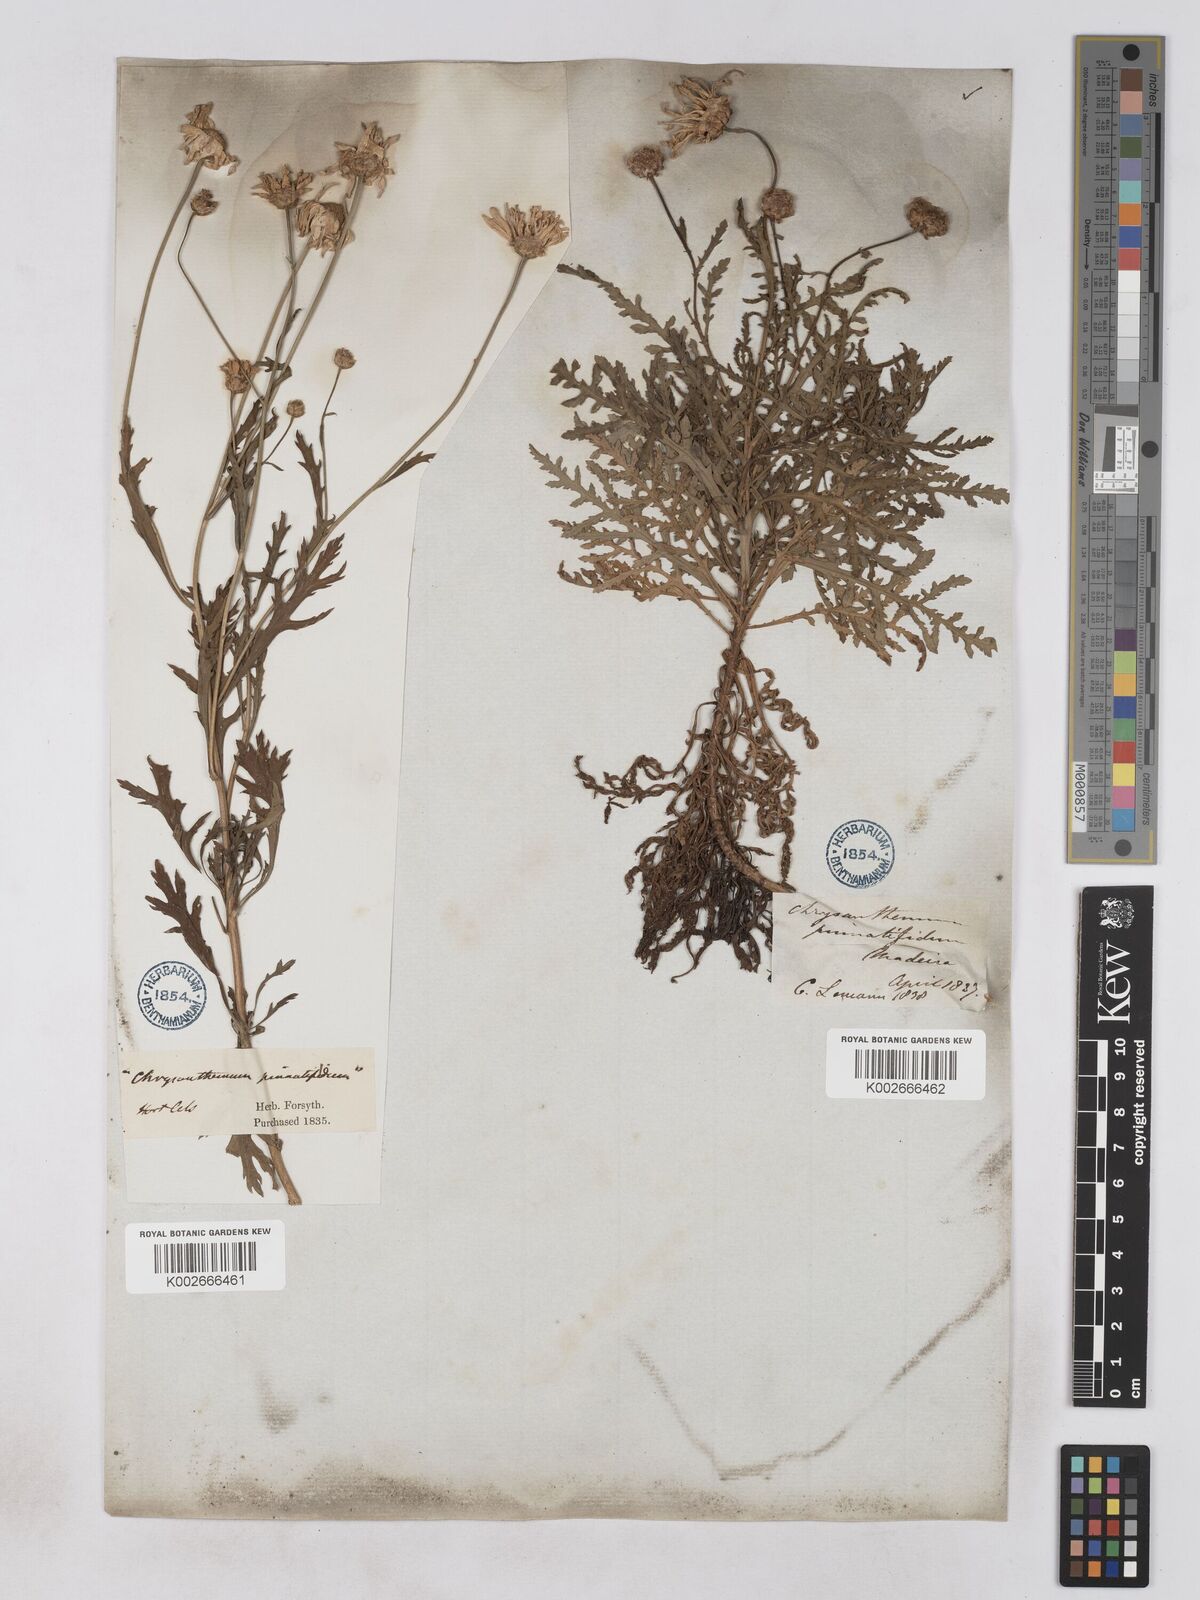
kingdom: Plantae
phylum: Tracheophyta
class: Magnoliopsida
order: Asterales
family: Asteraceae
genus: Argyranthemum
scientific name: Argyranthemum dissectum
